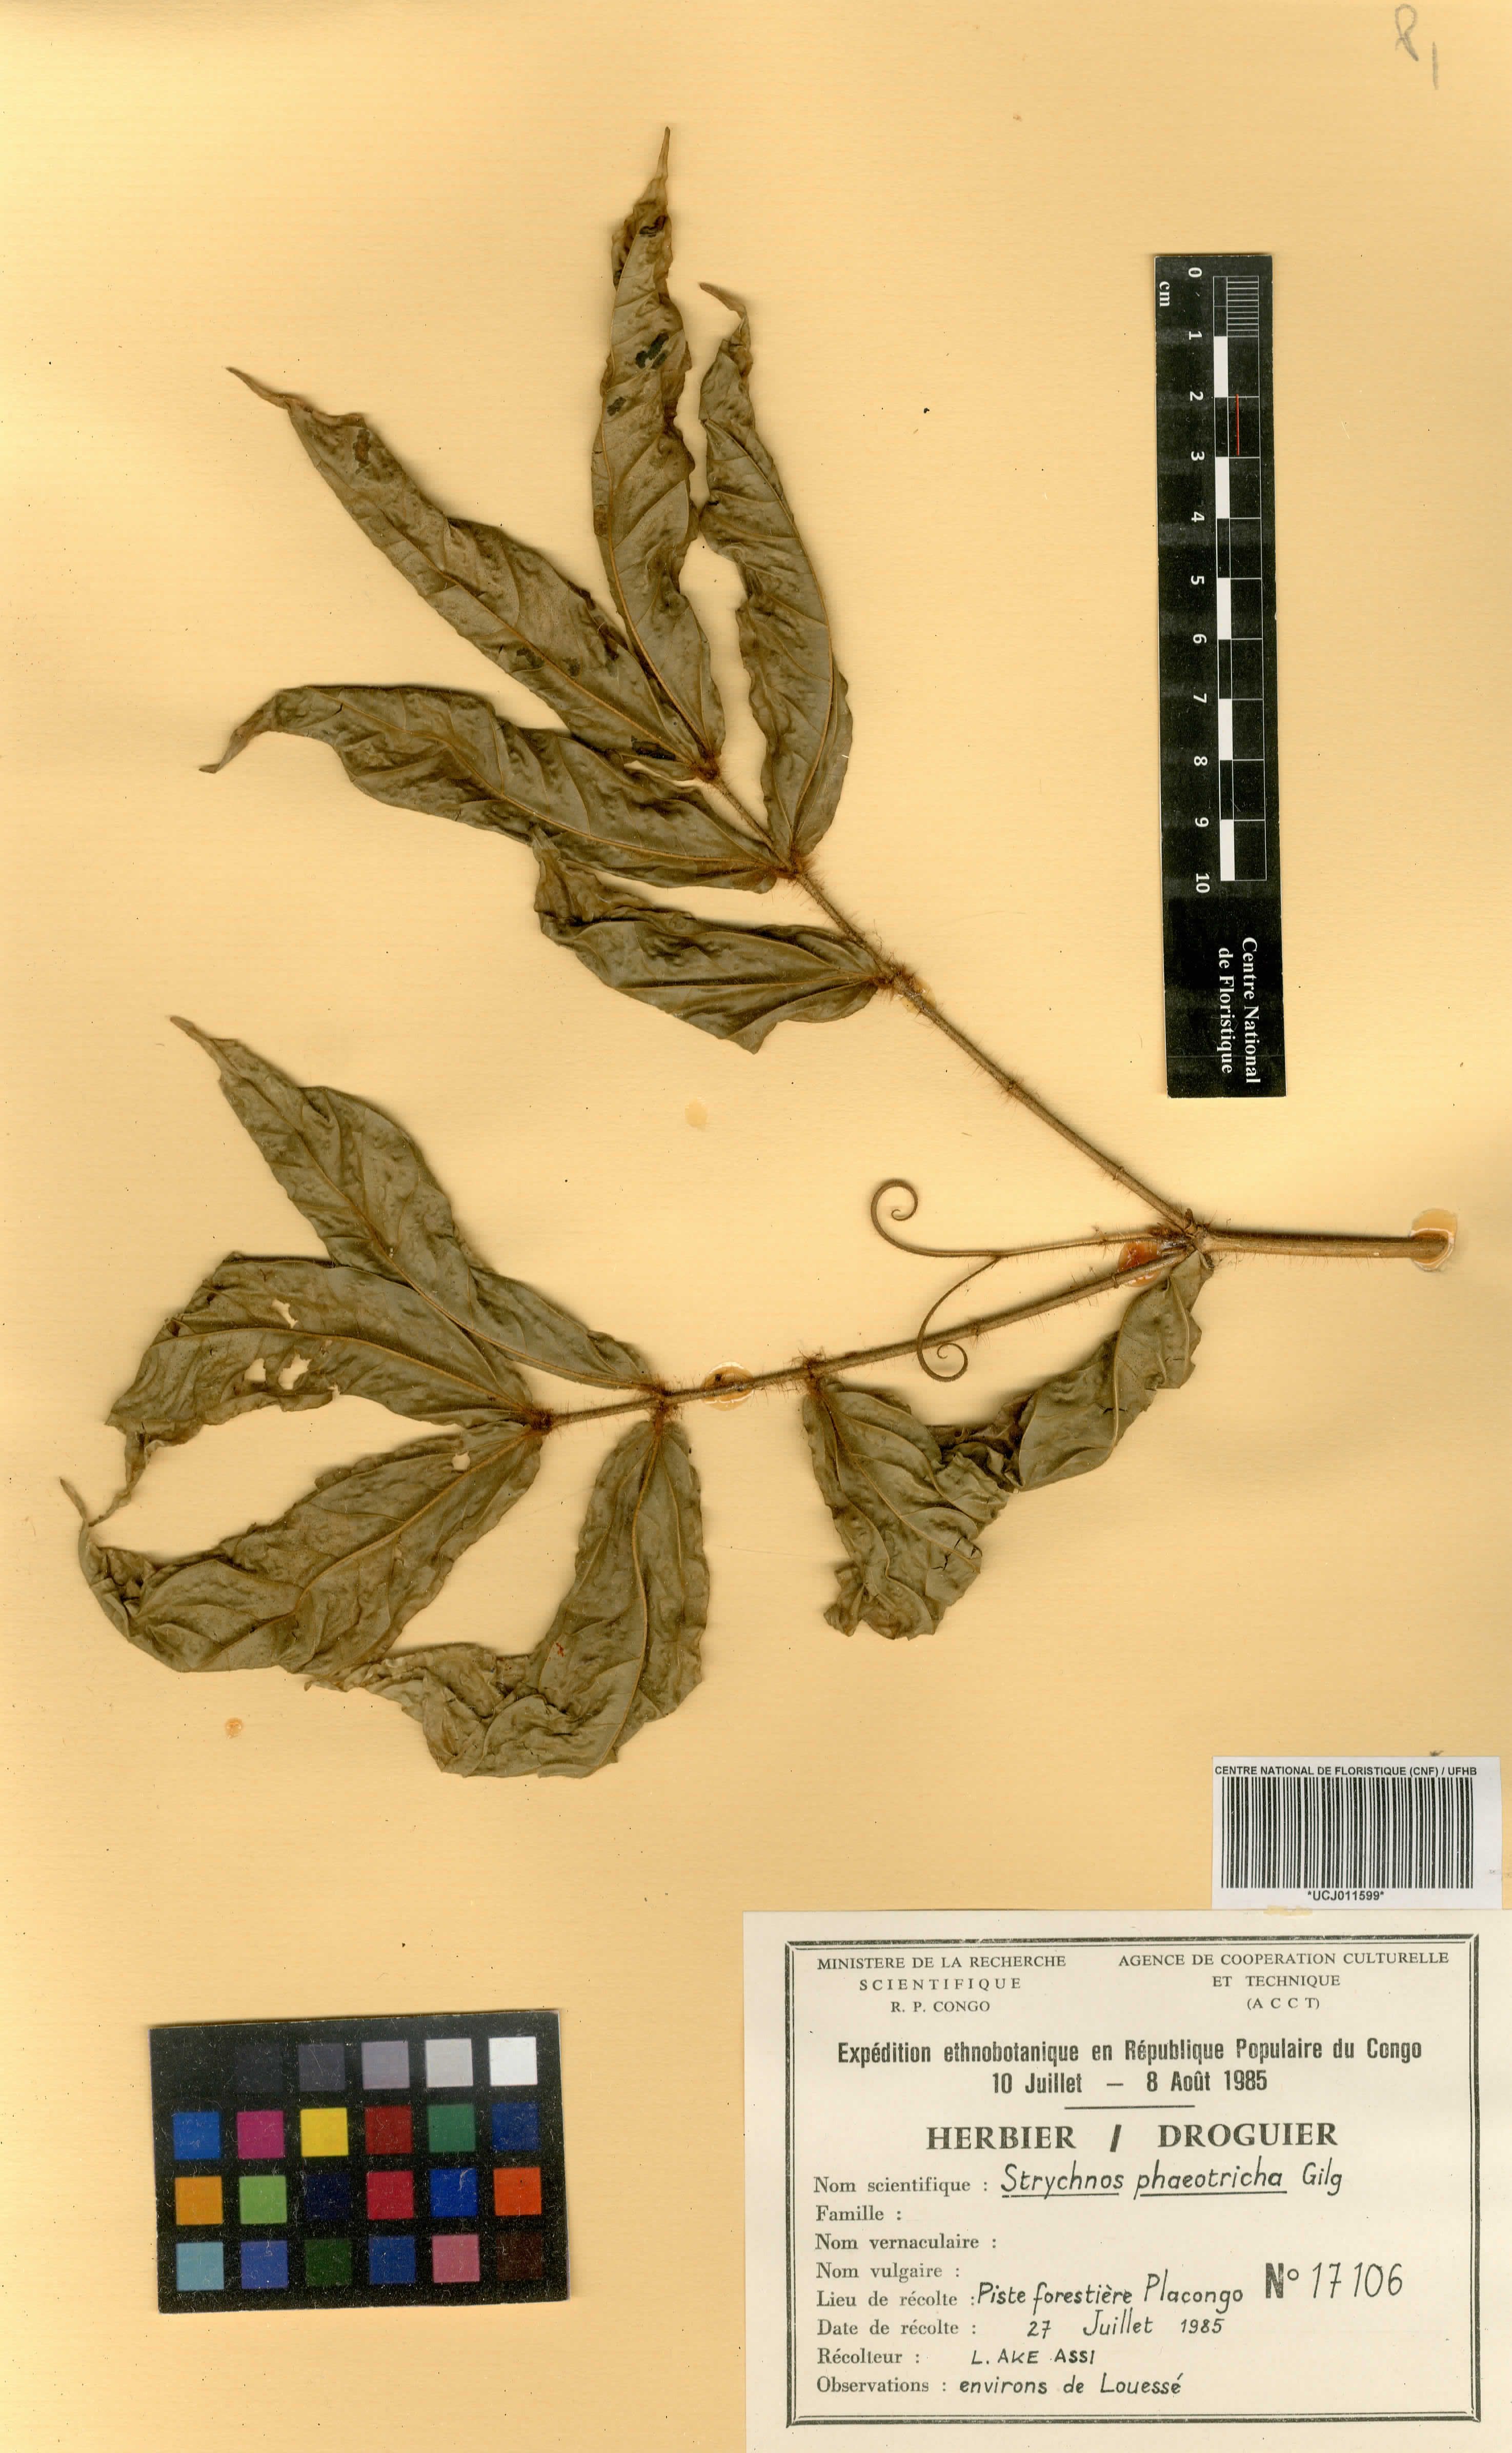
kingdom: Plantae
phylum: Tracheophyta
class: Magnoliopsida
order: Gentianales
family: Loganiaceae
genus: Strychnos
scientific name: Strychnos nux-vomica
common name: Strychninetree
